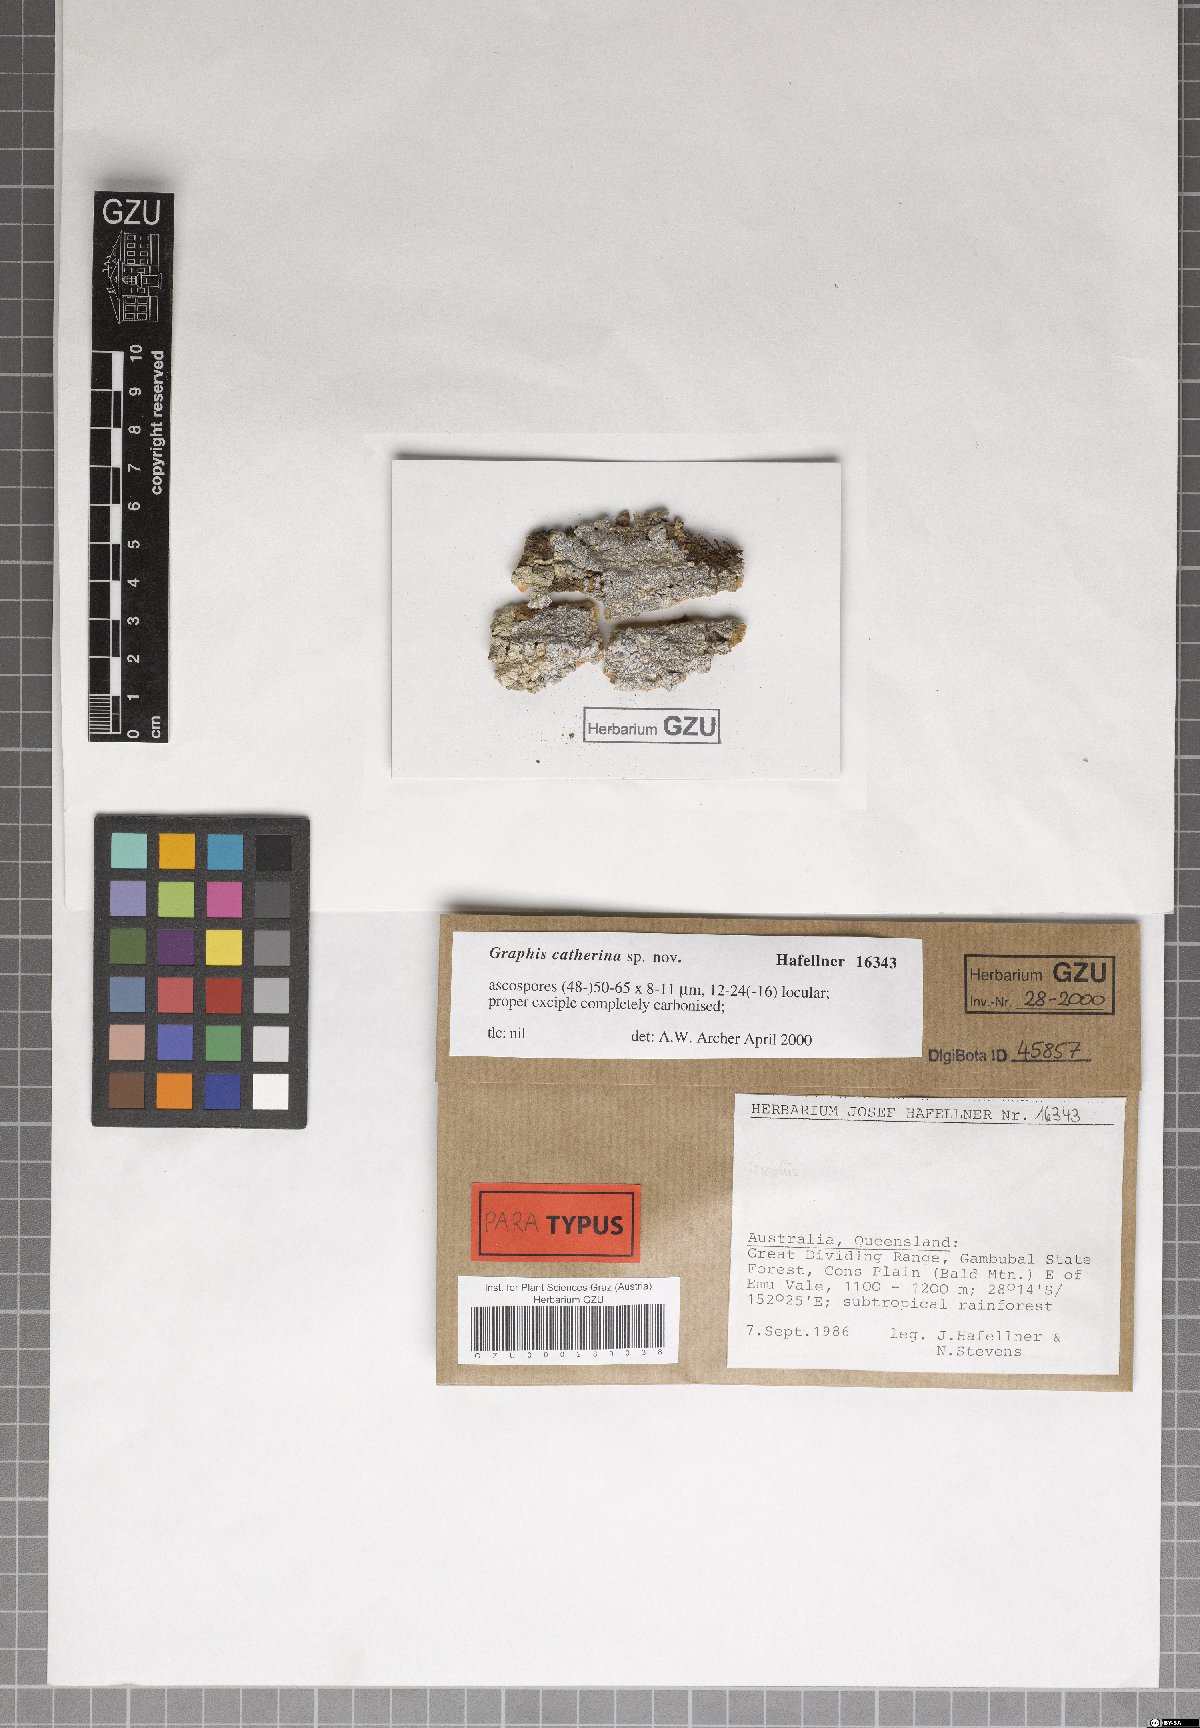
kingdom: Fungi
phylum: Ascomycota
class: Lecanoromycetes
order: Ostropales
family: Graphidaceae
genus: Graphis
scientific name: Graphis catherinae
